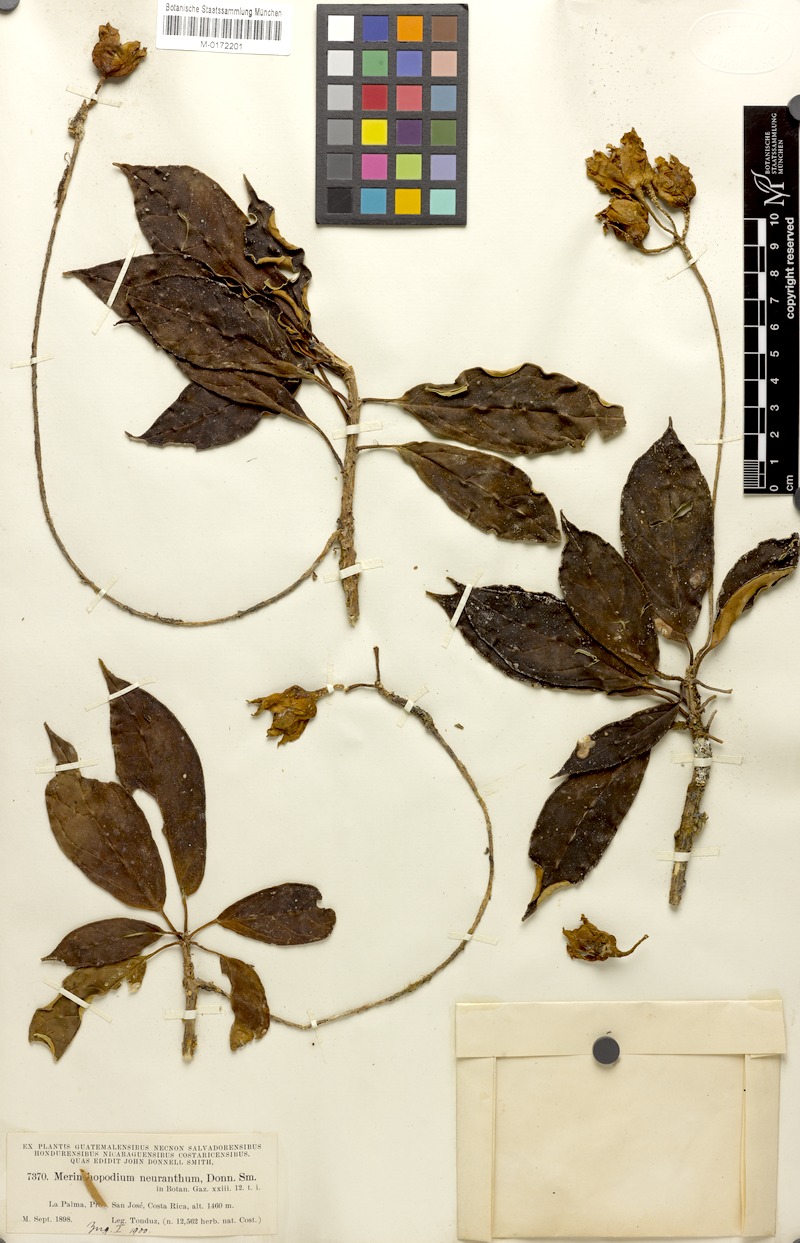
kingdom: Plantae
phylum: Tracheophyta
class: Magnoliopsida
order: Solanales
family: Solanaceae
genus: Merinthopodium
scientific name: Merinthopodium neuranthum
